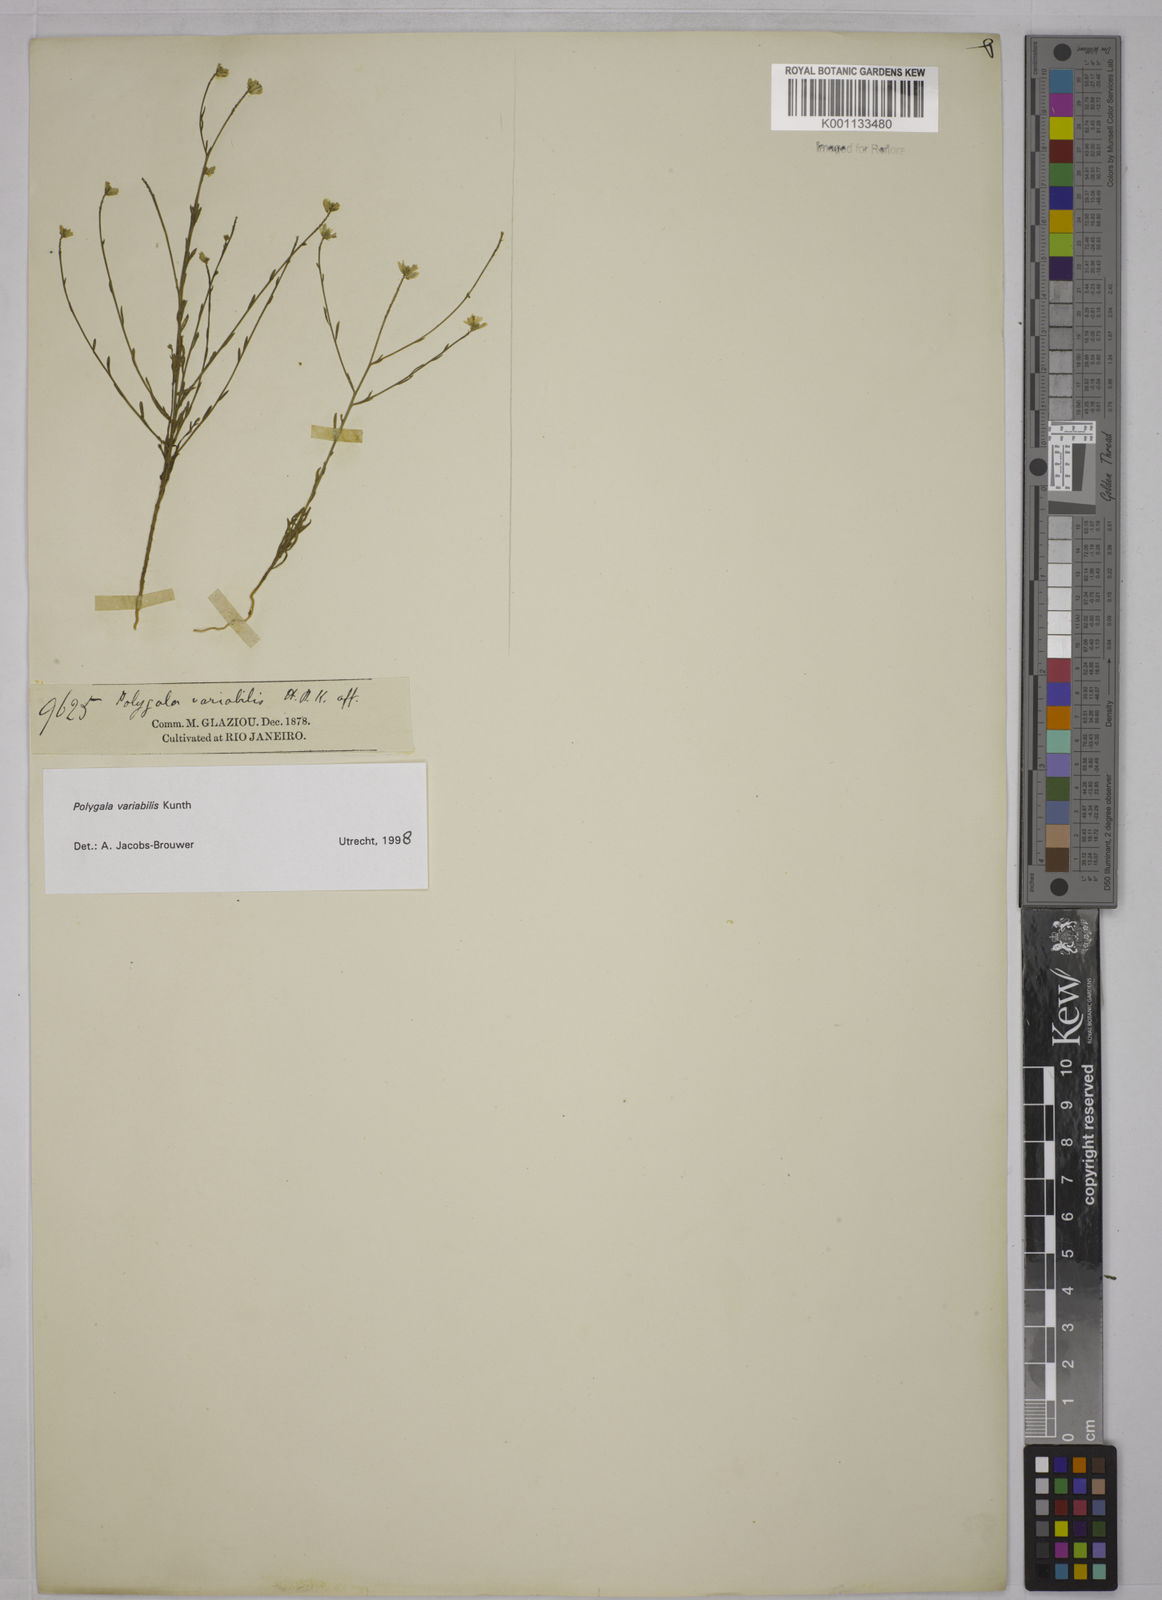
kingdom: Plantae
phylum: Tracheophyta
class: Magnoliopsida
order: Fabales
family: Polygalaceae
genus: Polygala
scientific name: Polygala trichosperma
